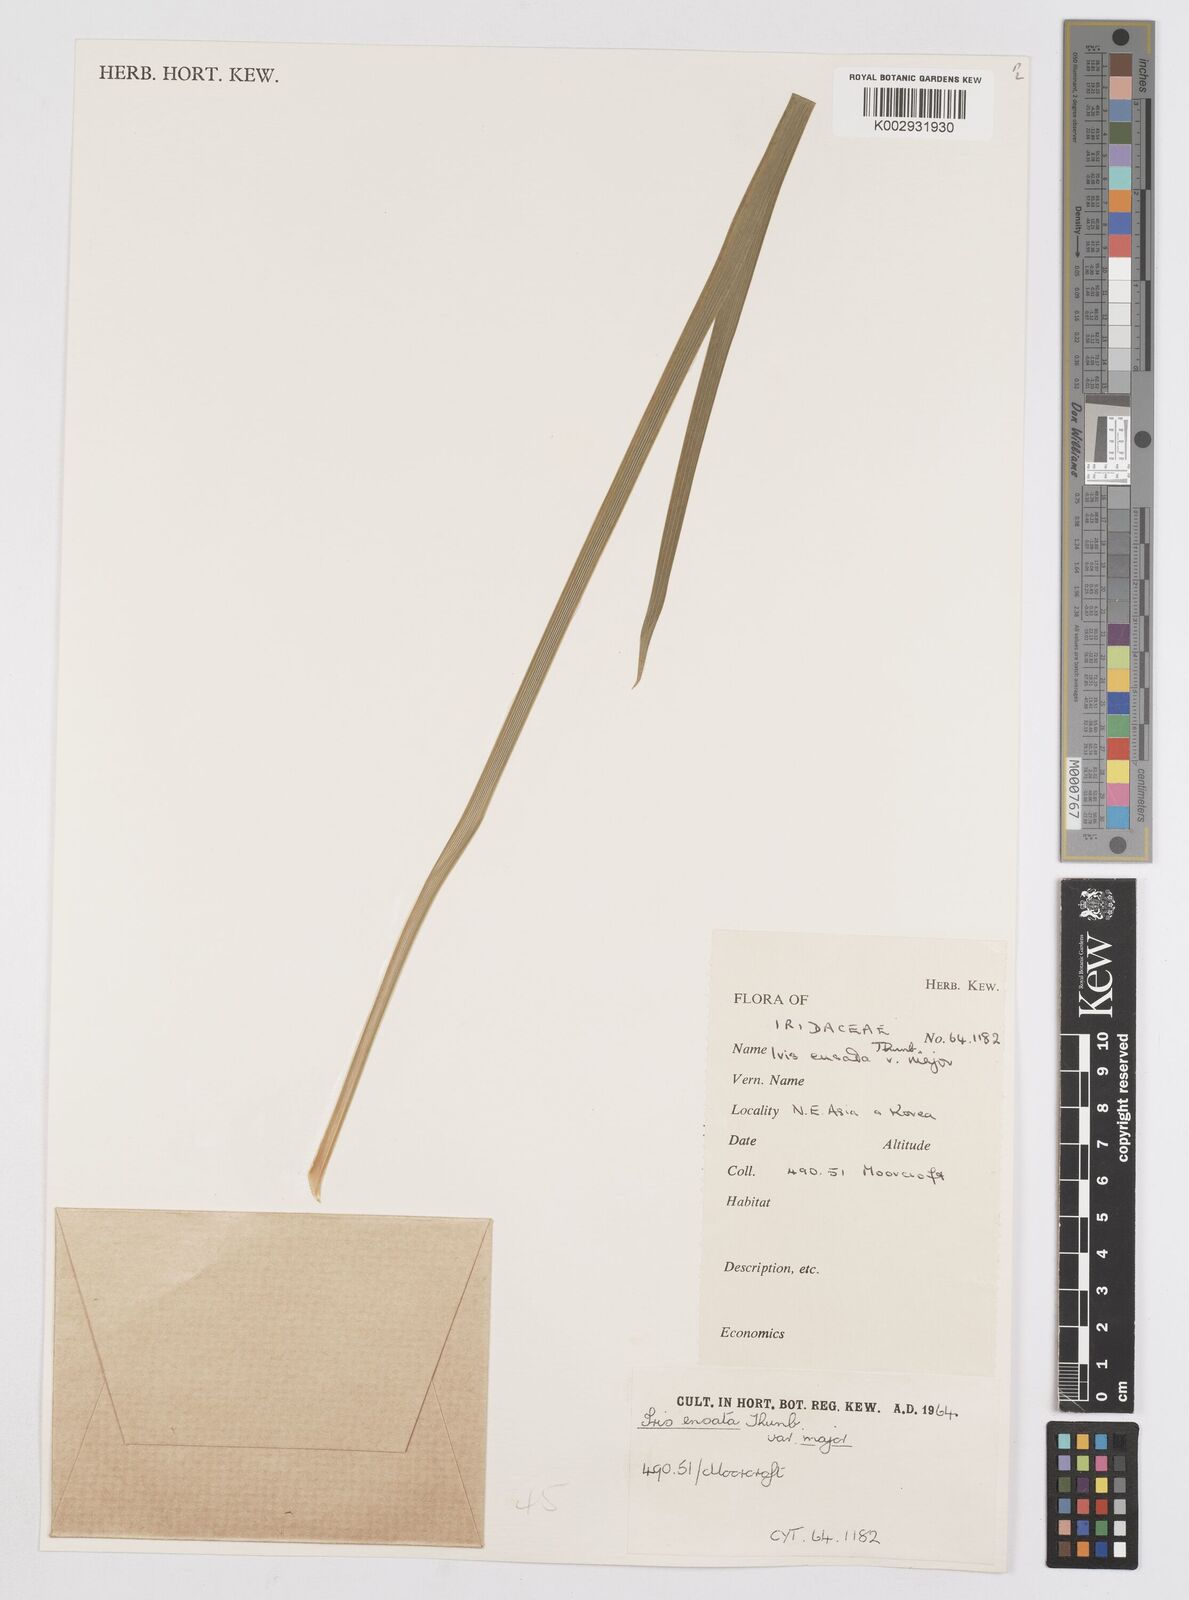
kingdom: Plantae
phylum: Tracheophyta
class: Liliopsida
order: Asparagales
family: Iridaceae
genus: Iris
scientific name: Iris ensata
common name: Beaked iris
